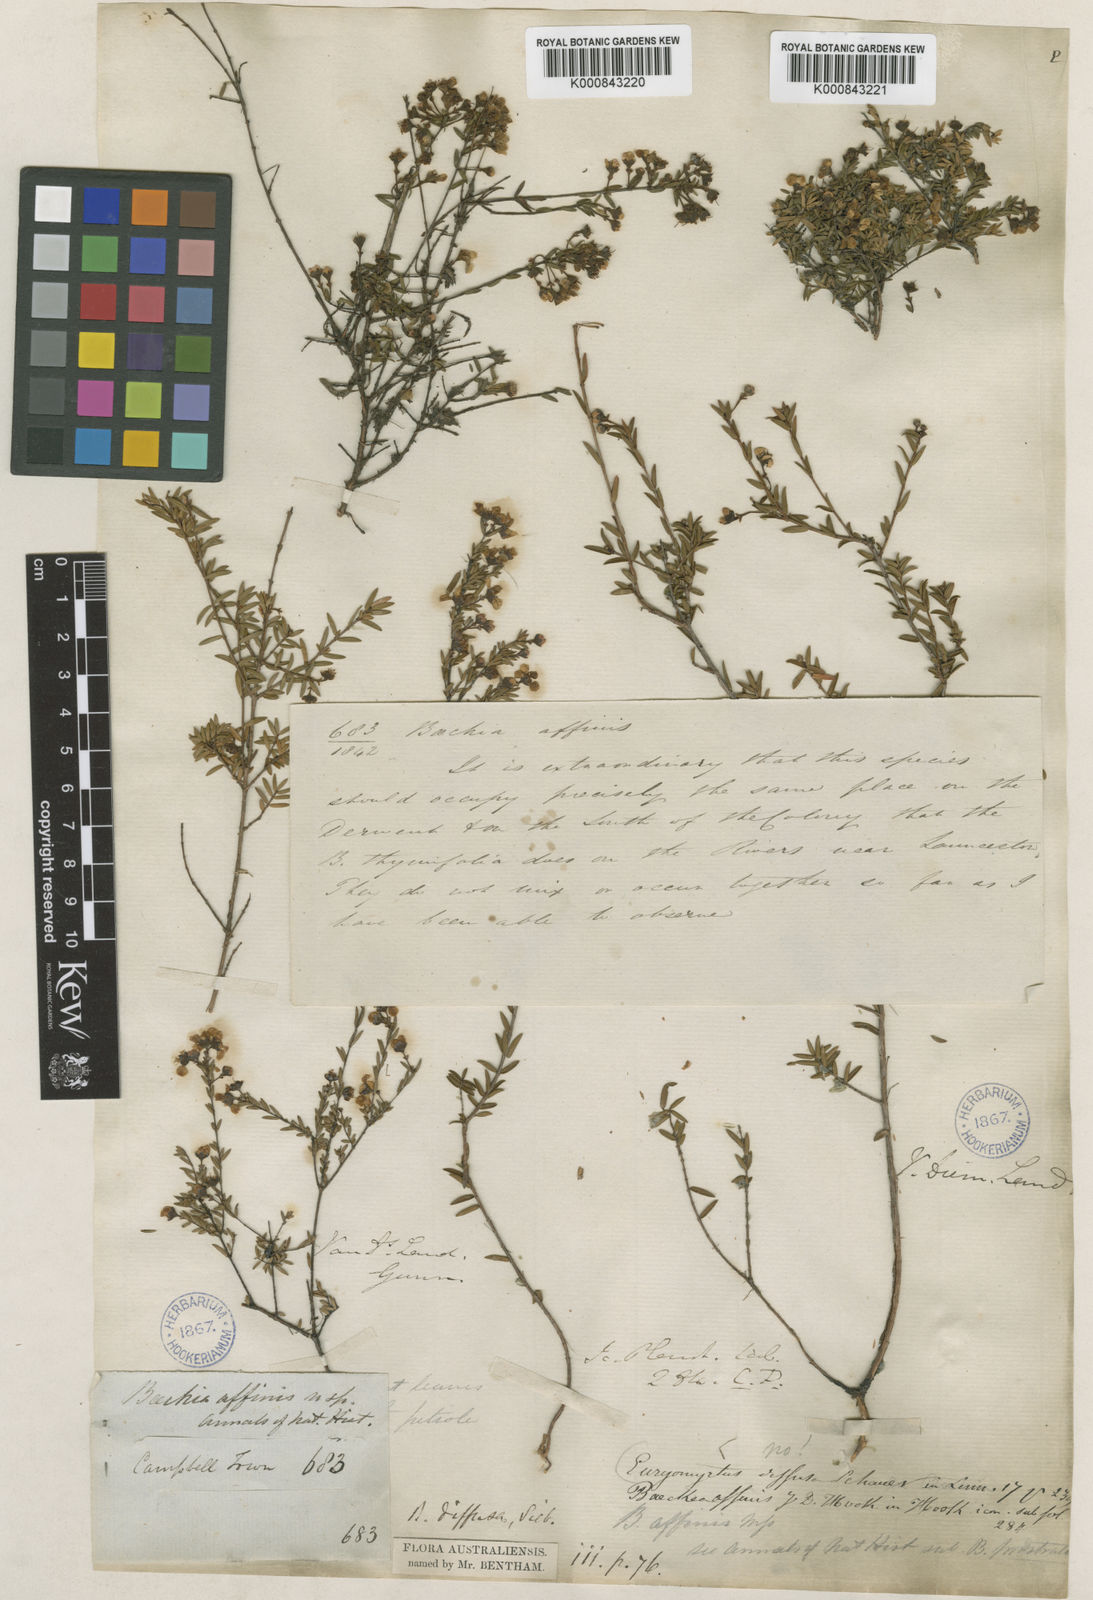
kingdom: Plantae
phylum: Tracheophyta
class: Magnoliopsida
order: Myrtales
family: Myrtaceae
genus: Euryomyrtus
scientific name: Euryomyrtus ramosissima
